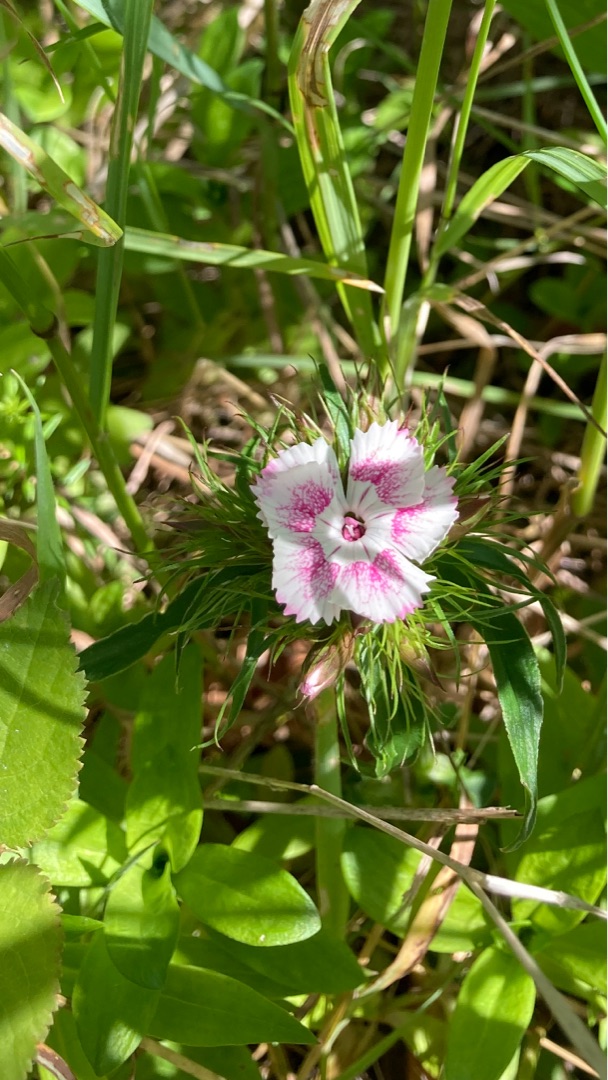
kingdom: Plantae
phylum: Tracheophyta
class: Magnoliopsida
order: Caryophyllales
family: Caryophyllaceae
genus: Dianthus
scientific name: Dianthus barbatus
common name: Studenter-nellike
